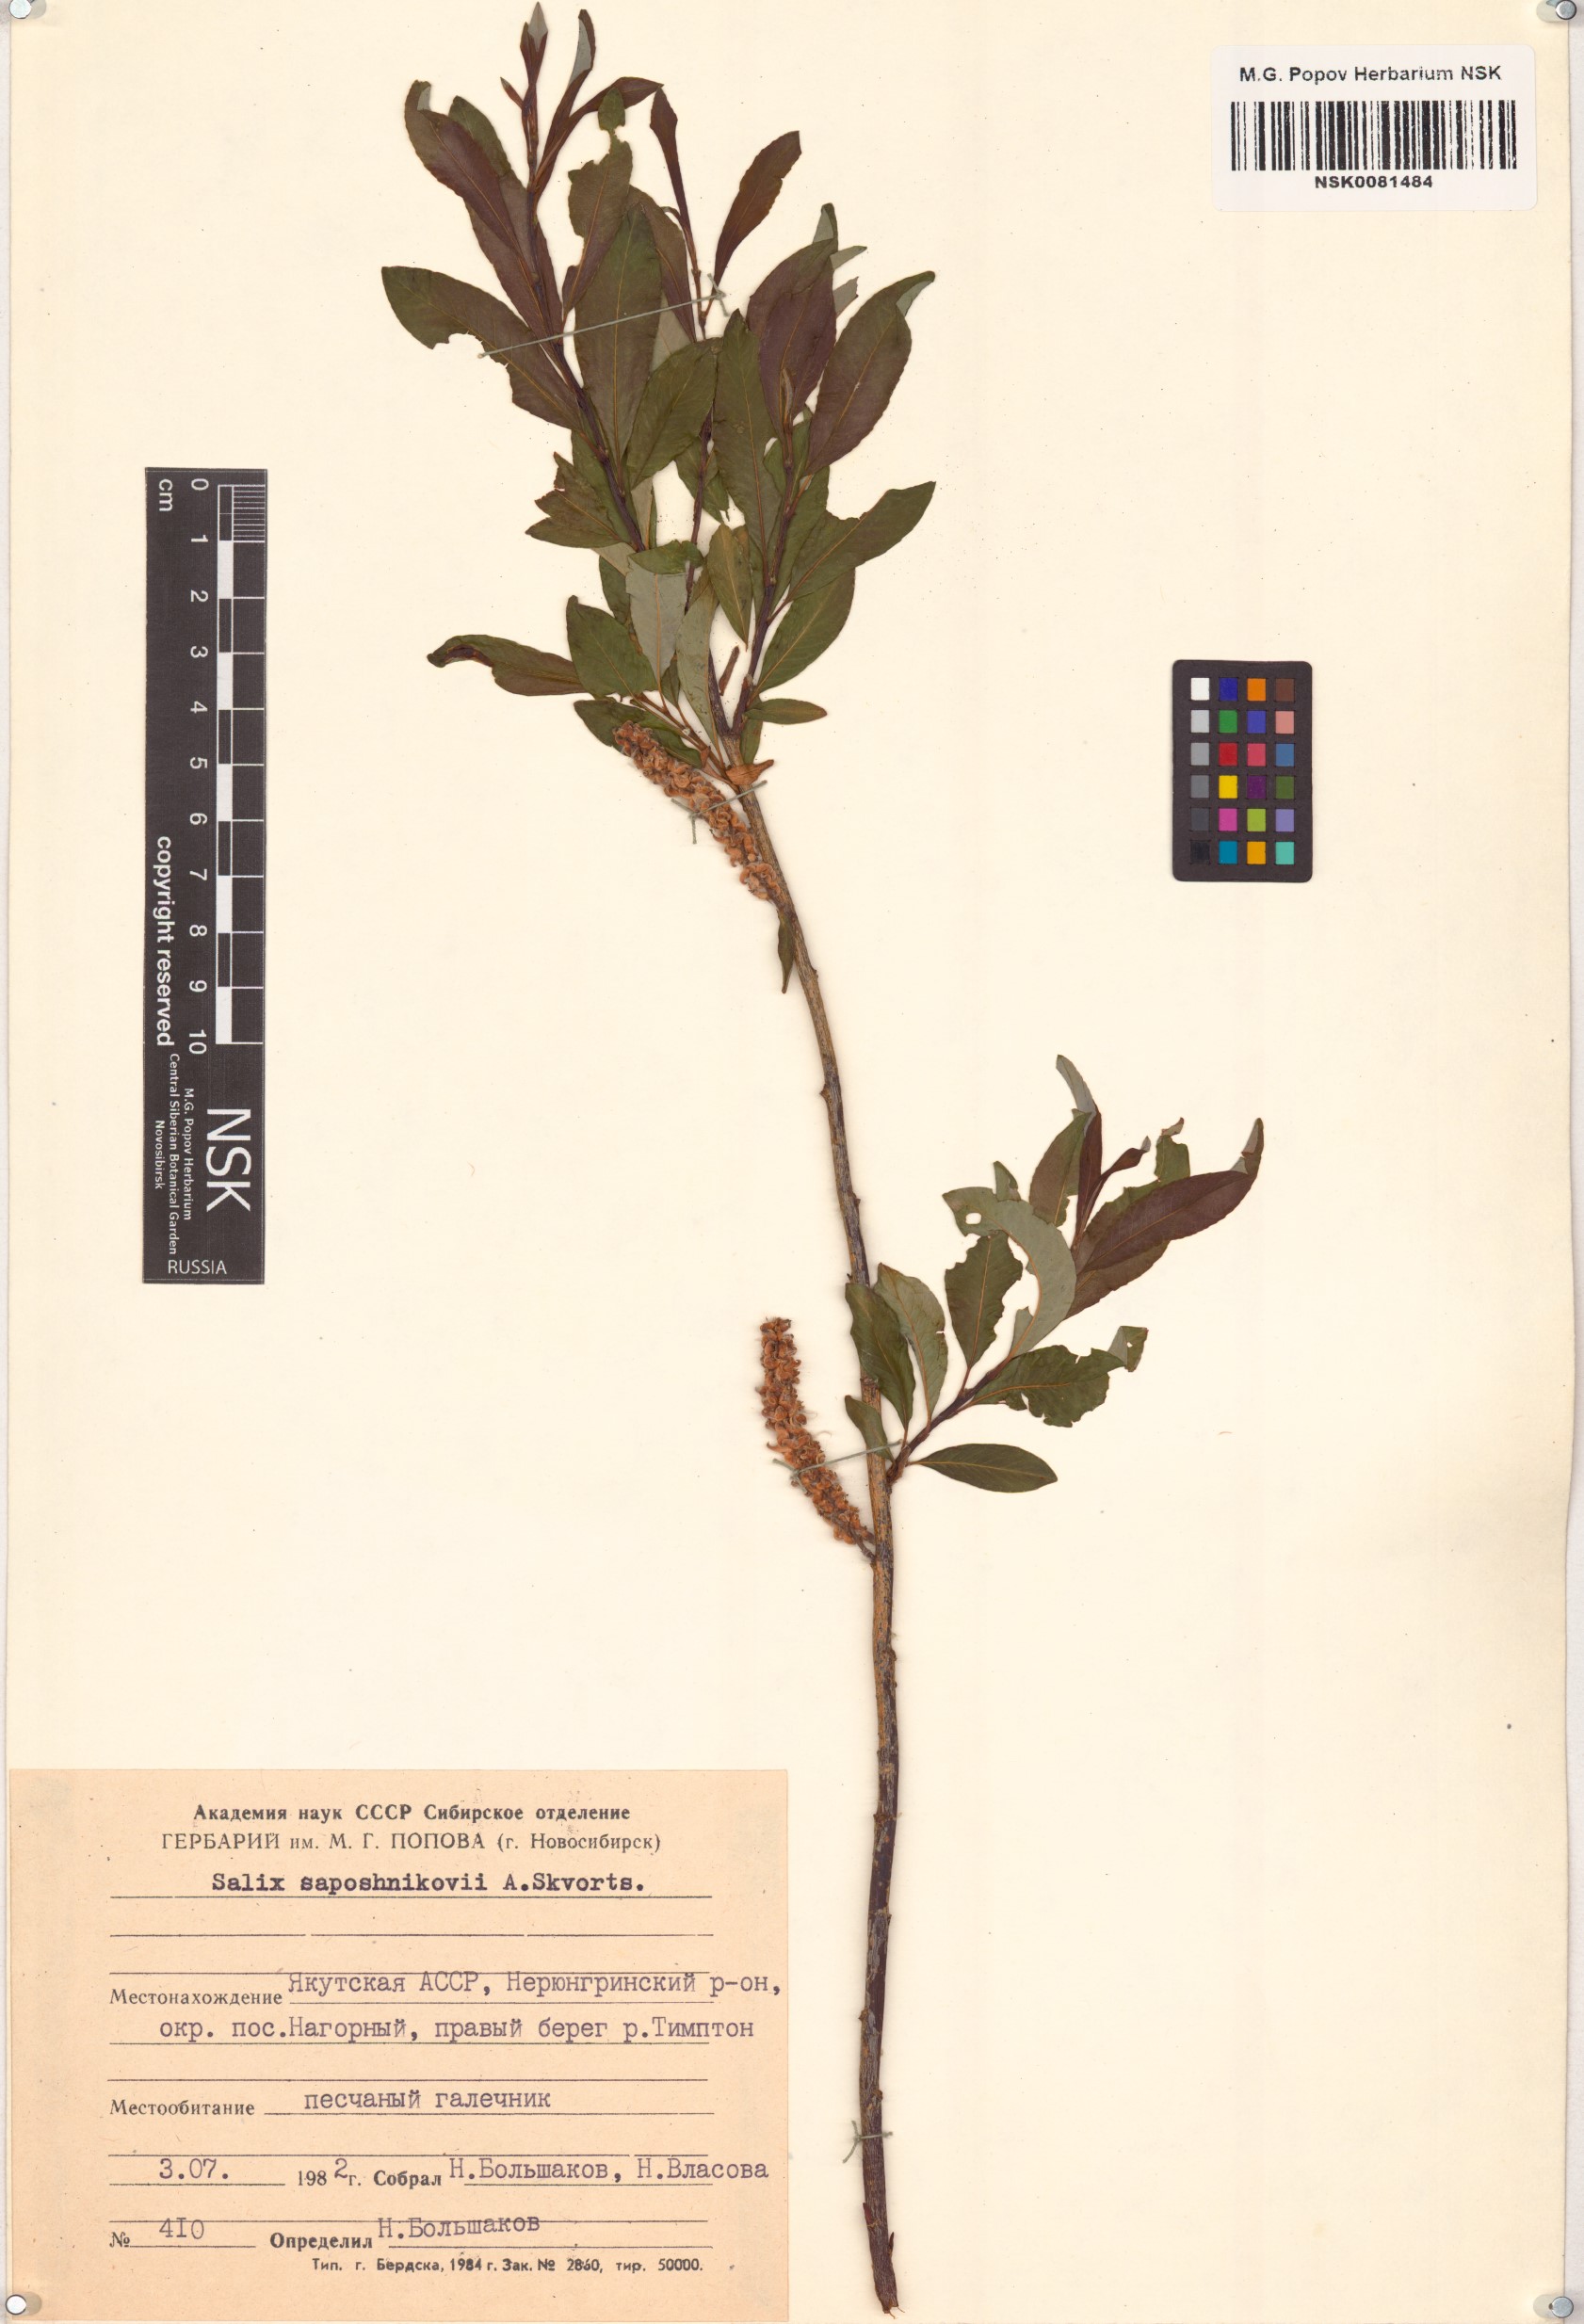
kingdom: Plantae
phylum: Tracheophyta
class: Magnoliopsida
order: Malpighiales
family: Salicaceae
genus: Salix
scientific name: Salix saposhnikovii
